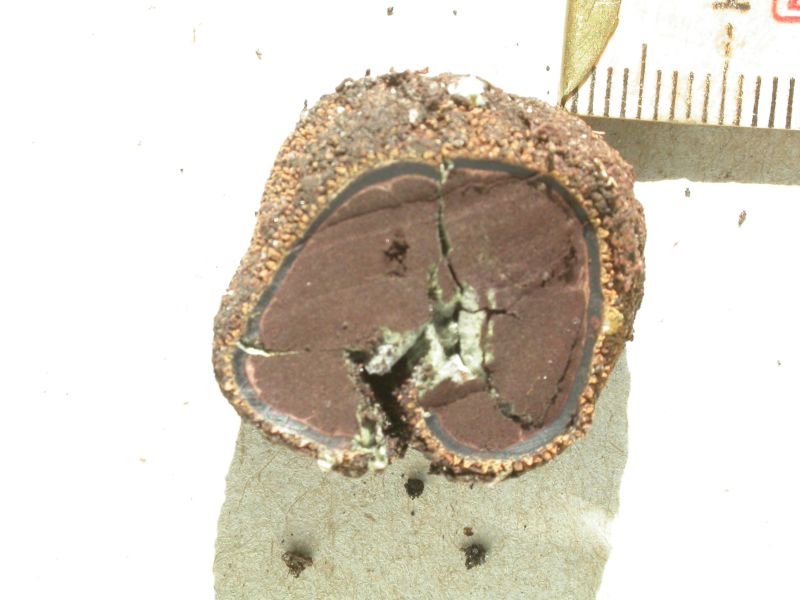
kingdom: Fungi
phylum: Ascomycota
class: Eurotiomycetes
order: Eurotiales
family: Elaphomycetaceae
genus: Elaphomyces
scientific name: Elaphomyces muricatus
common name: vortet hjortetrøffel
